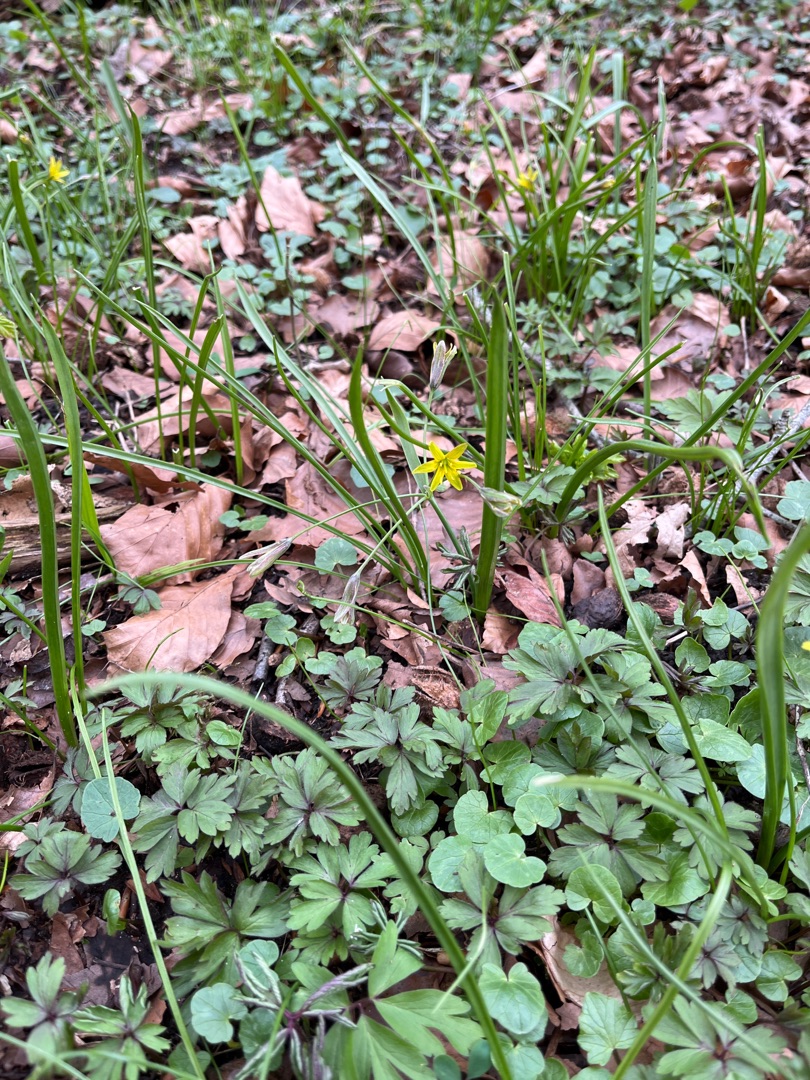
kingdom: Plantae
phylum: Tracheophyta
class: Liliopsida
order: Liliales
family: Liliaceae
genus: Gagea
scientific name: Gagea lutea
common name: Almindelig guldstjerne
